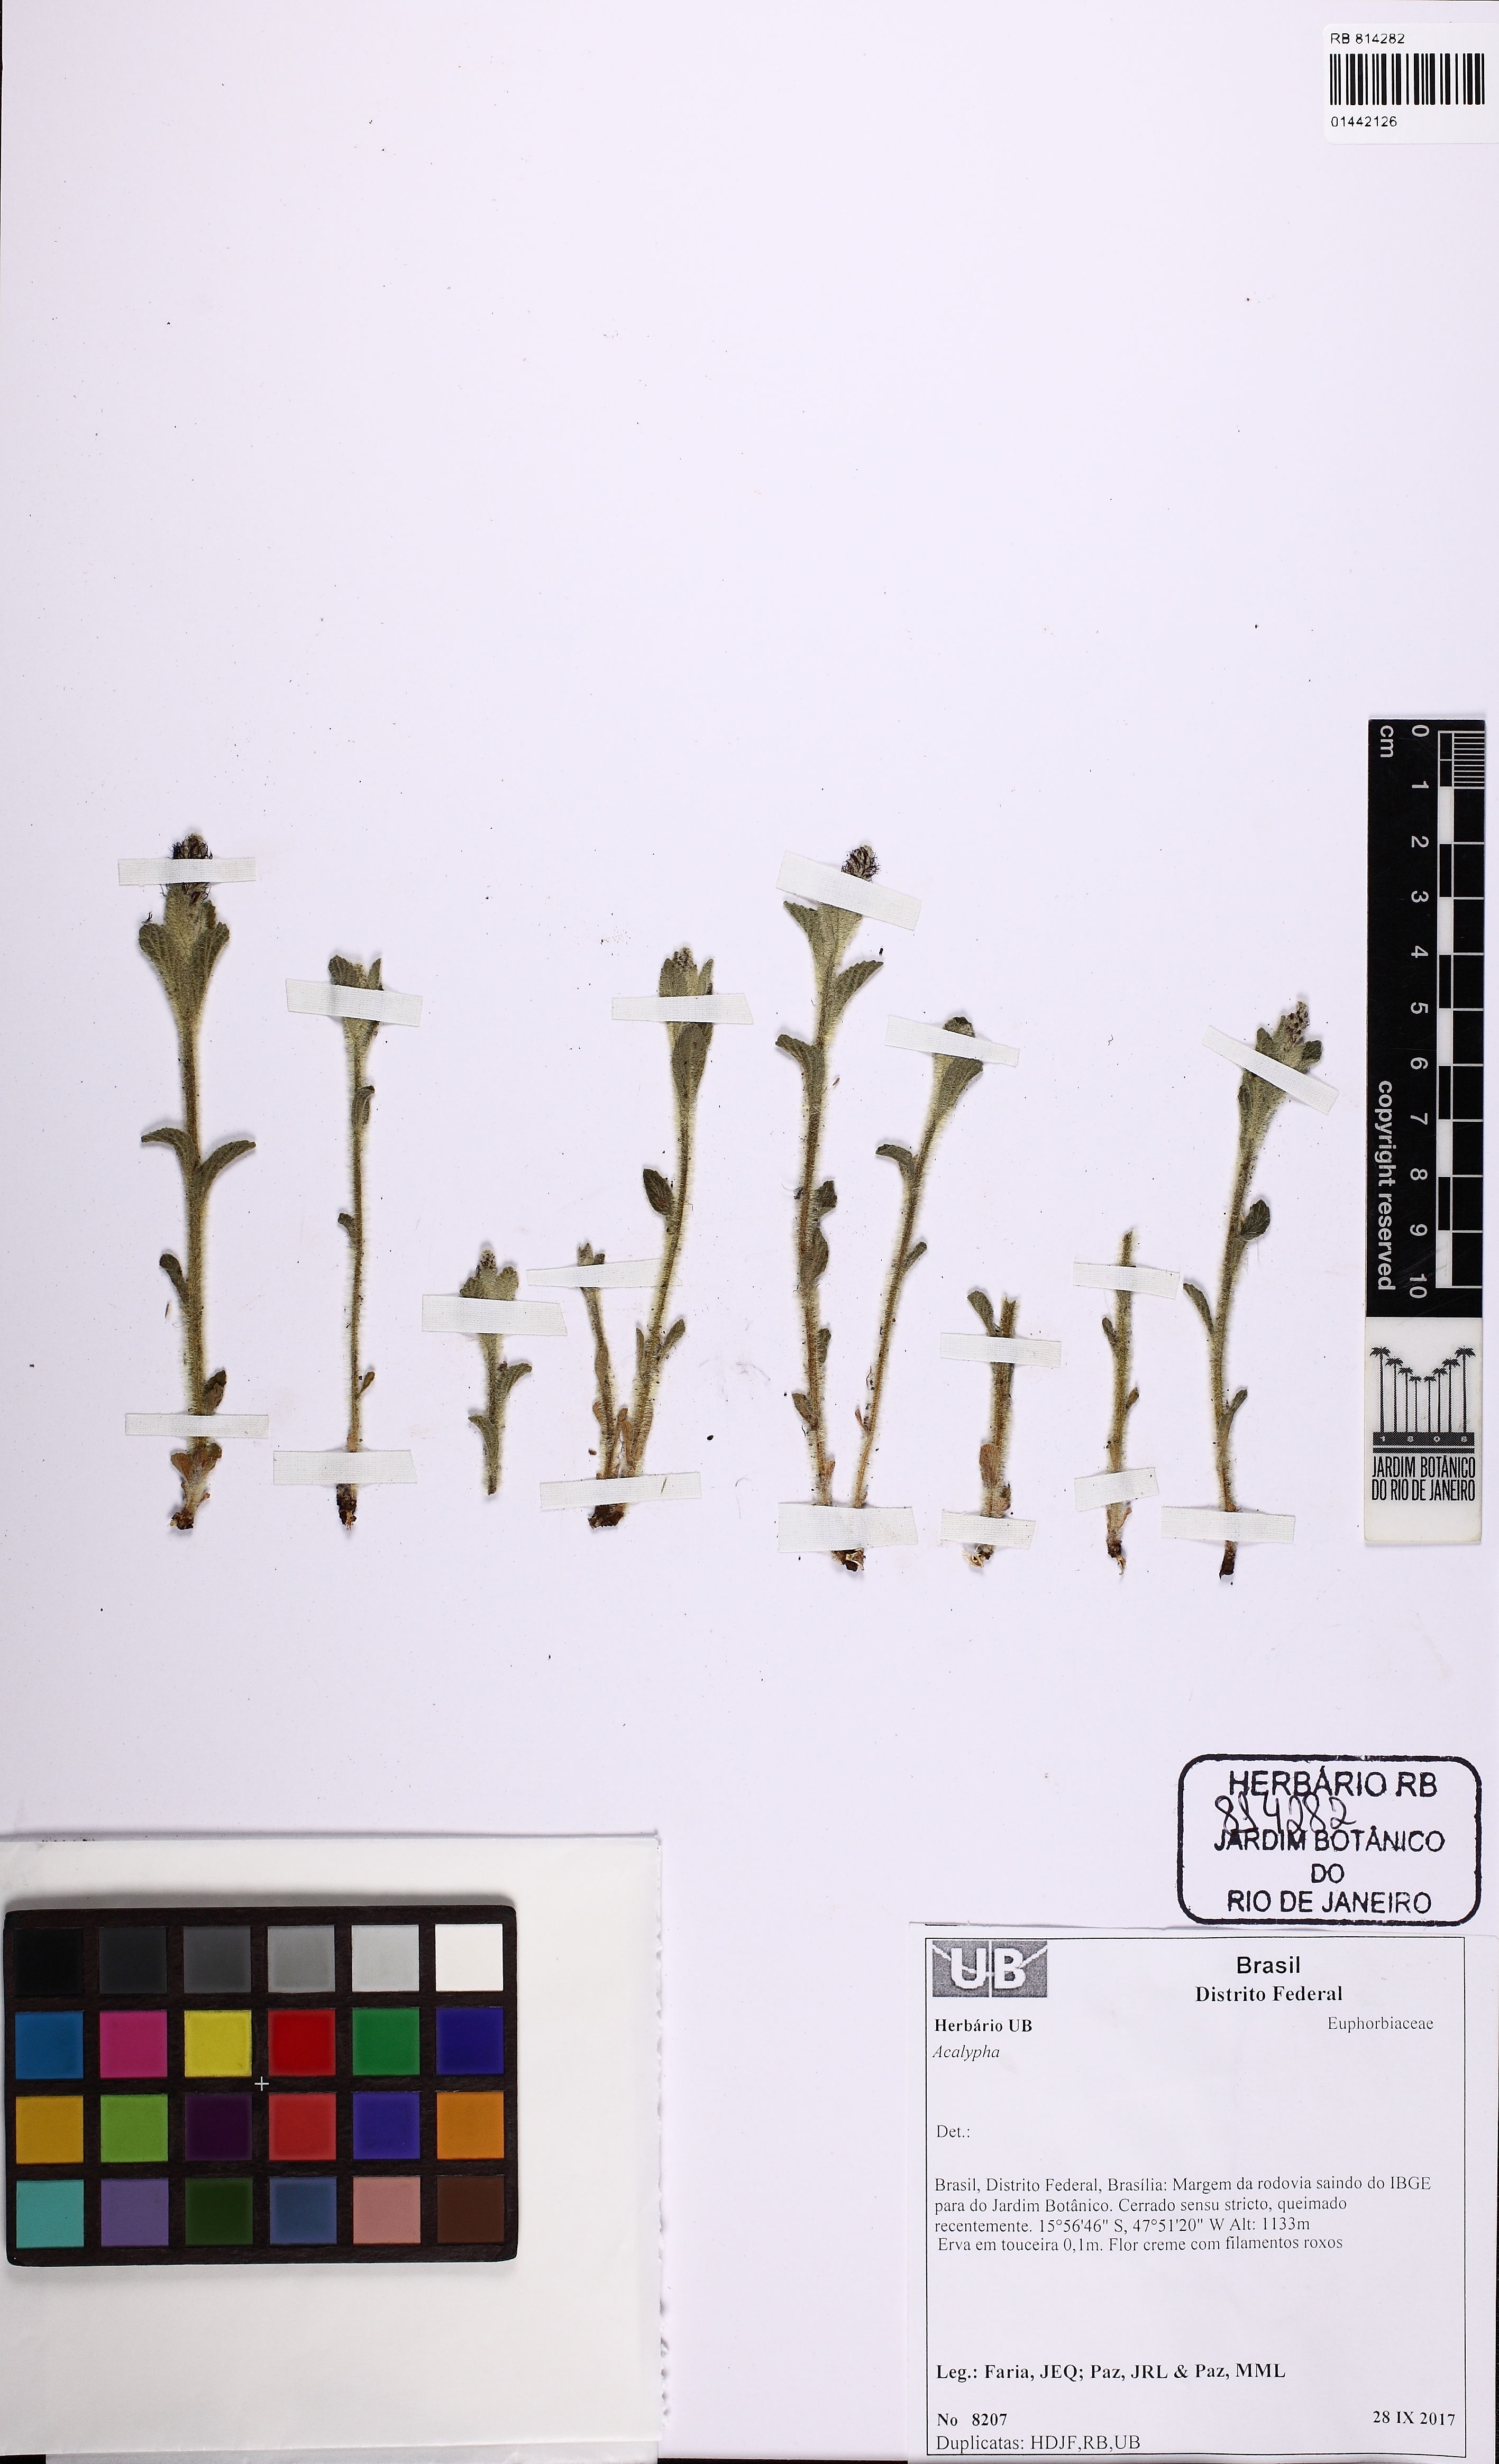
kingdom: Plantae
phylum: Tracheophyta
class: Magnoliopsida
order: Malpighiales
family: Euphorbiaceae
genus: Acalypha
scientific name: Acalypha claussenii
